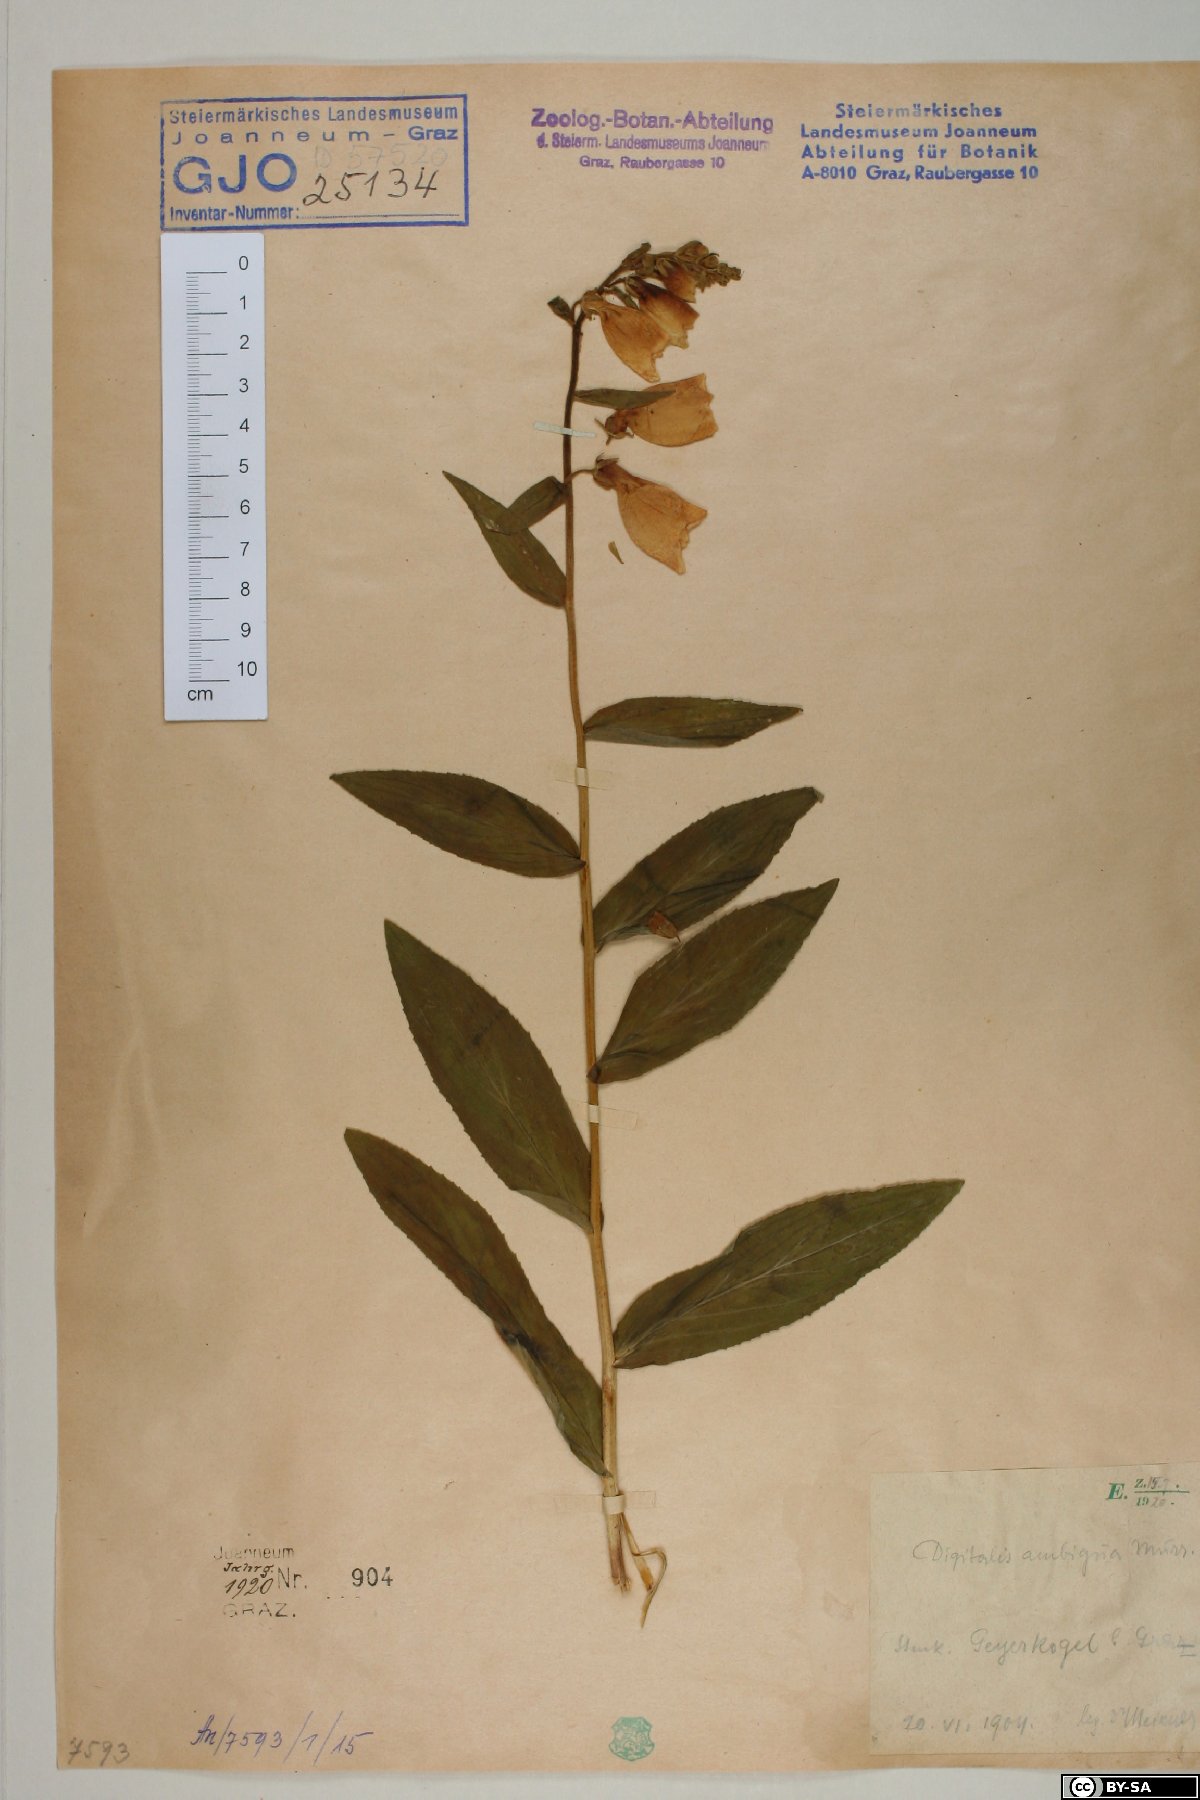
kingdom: Plantae
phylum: Tracheophyta
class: Magnoliopsida
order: Lamiales
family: Plantaginaceae
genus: Digitalis
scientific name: Digitalis grandiflora
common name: Yellow foxglove
